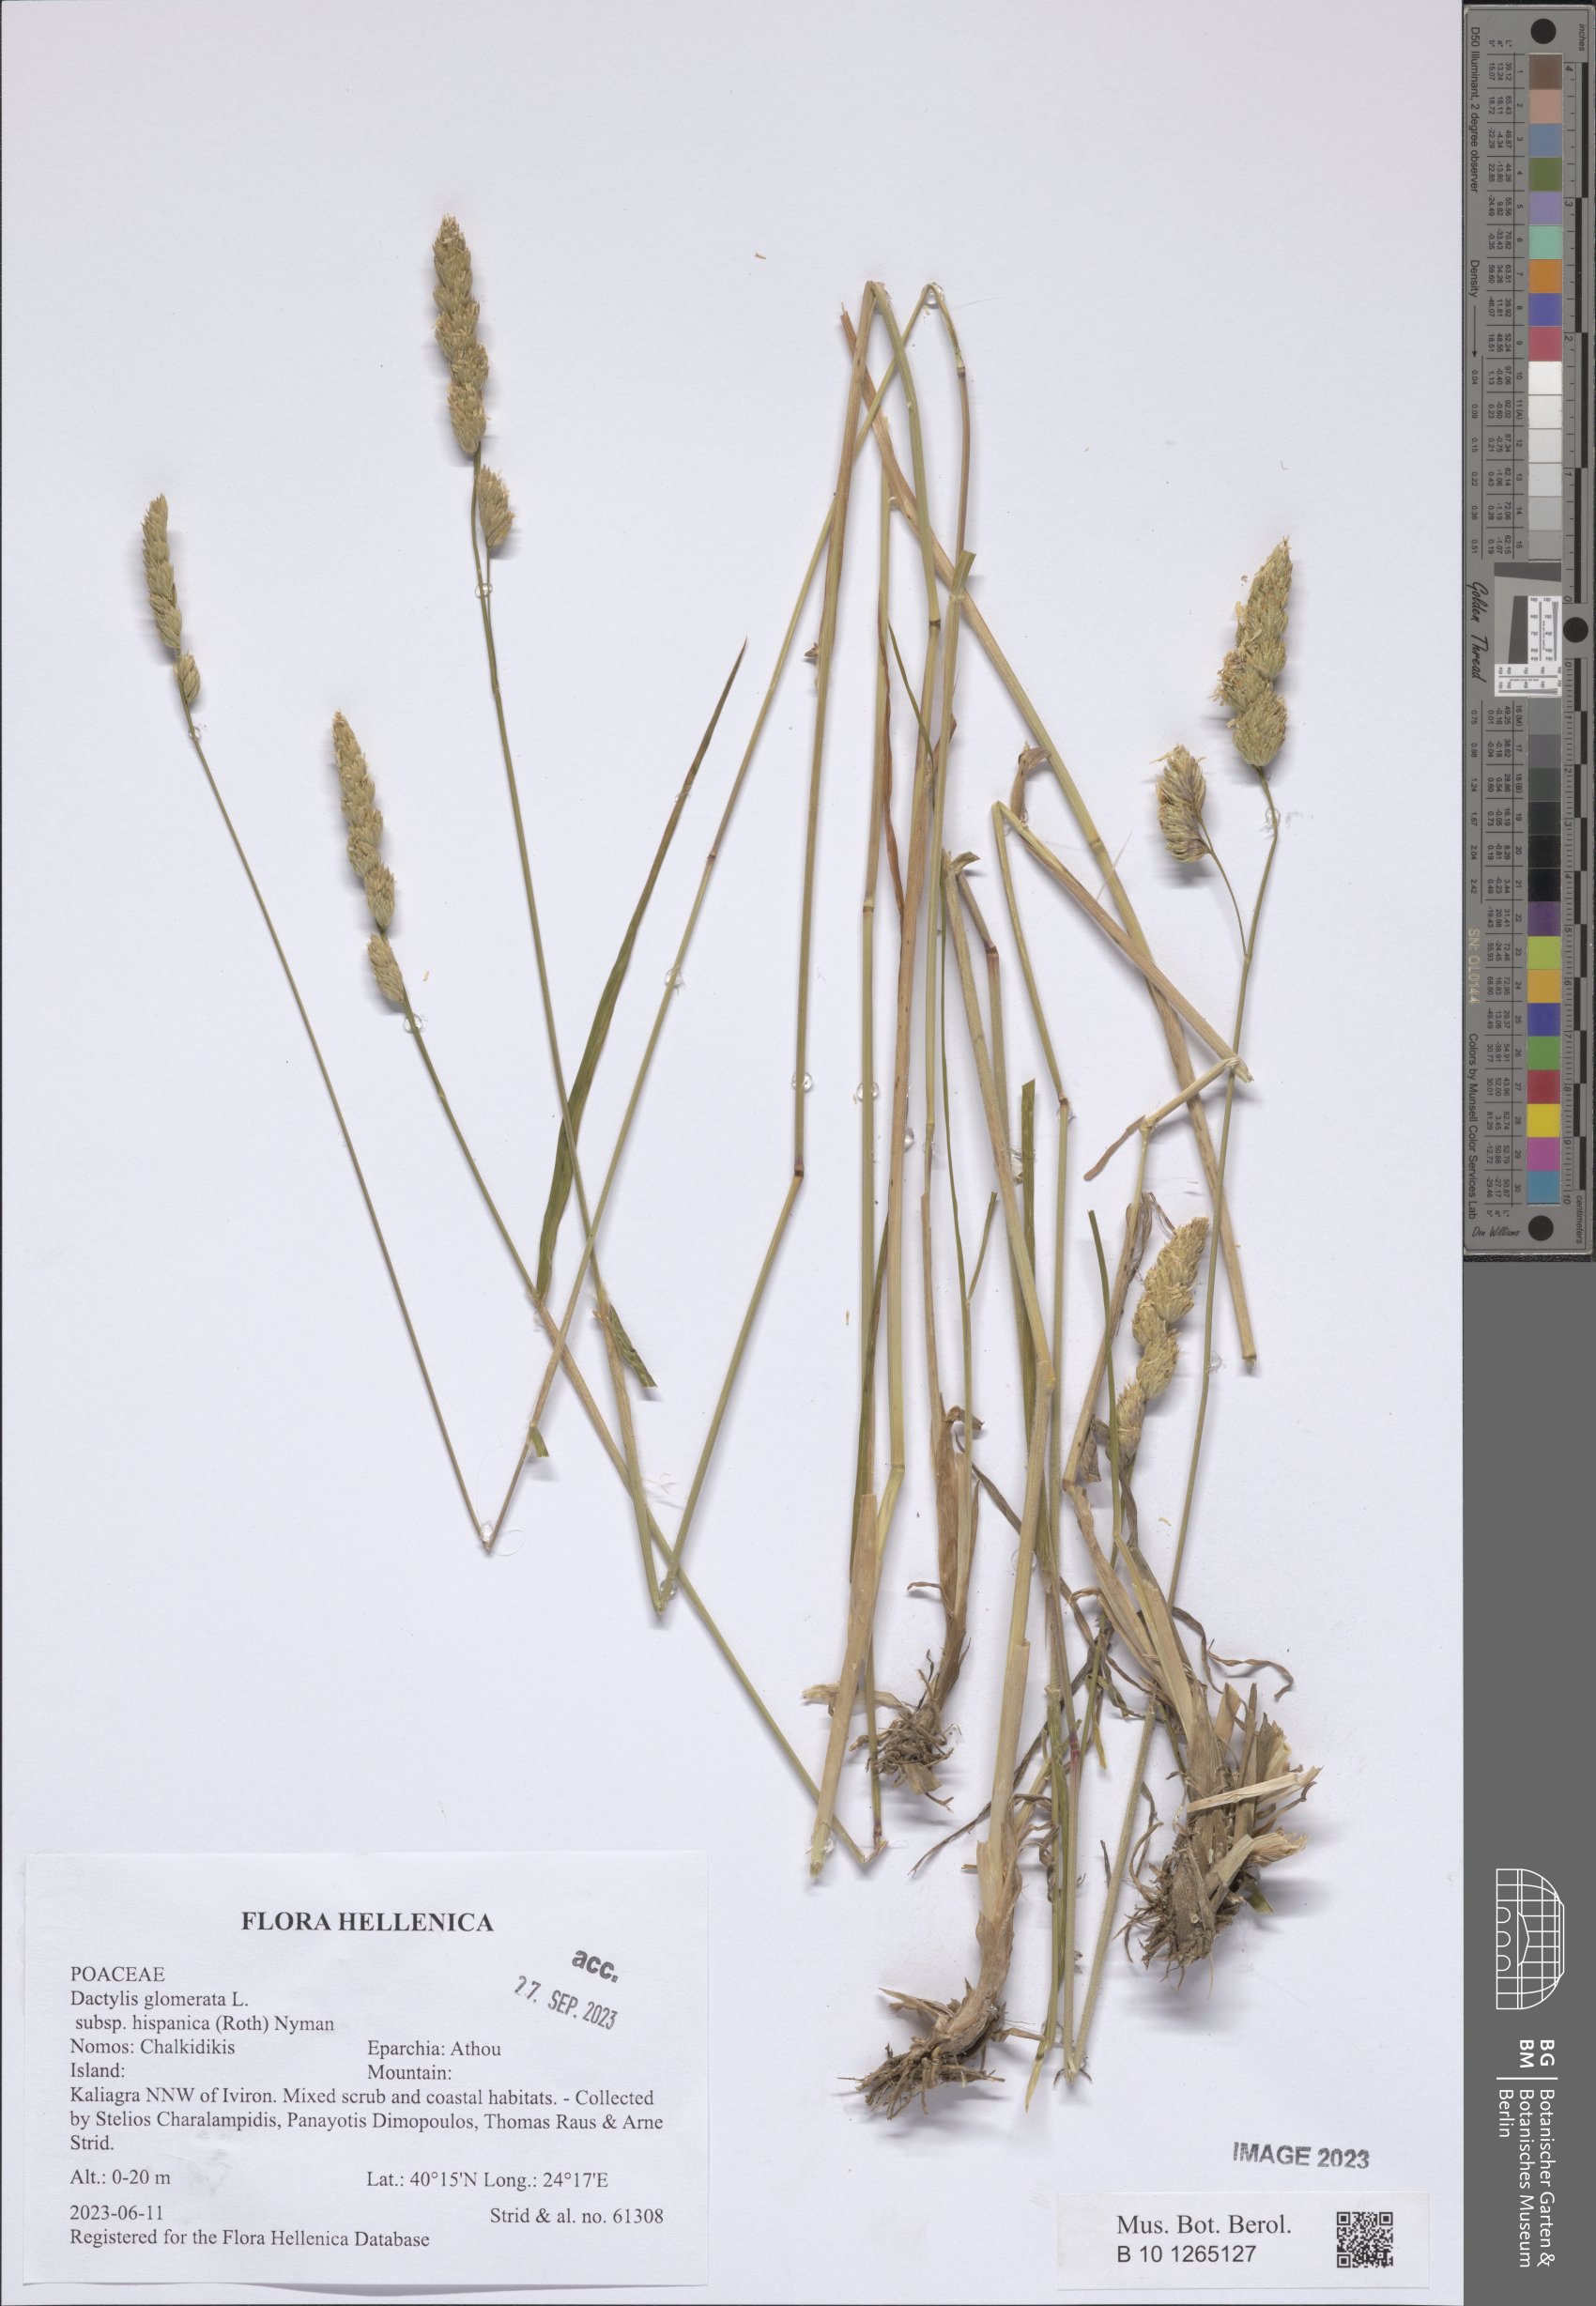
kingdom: Plantae
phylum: Tracheophyta
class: Liliopsida
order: Poales
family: Poaceae
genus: Dactylis
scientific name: Dactylis glomerata
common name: Orchardgrass
